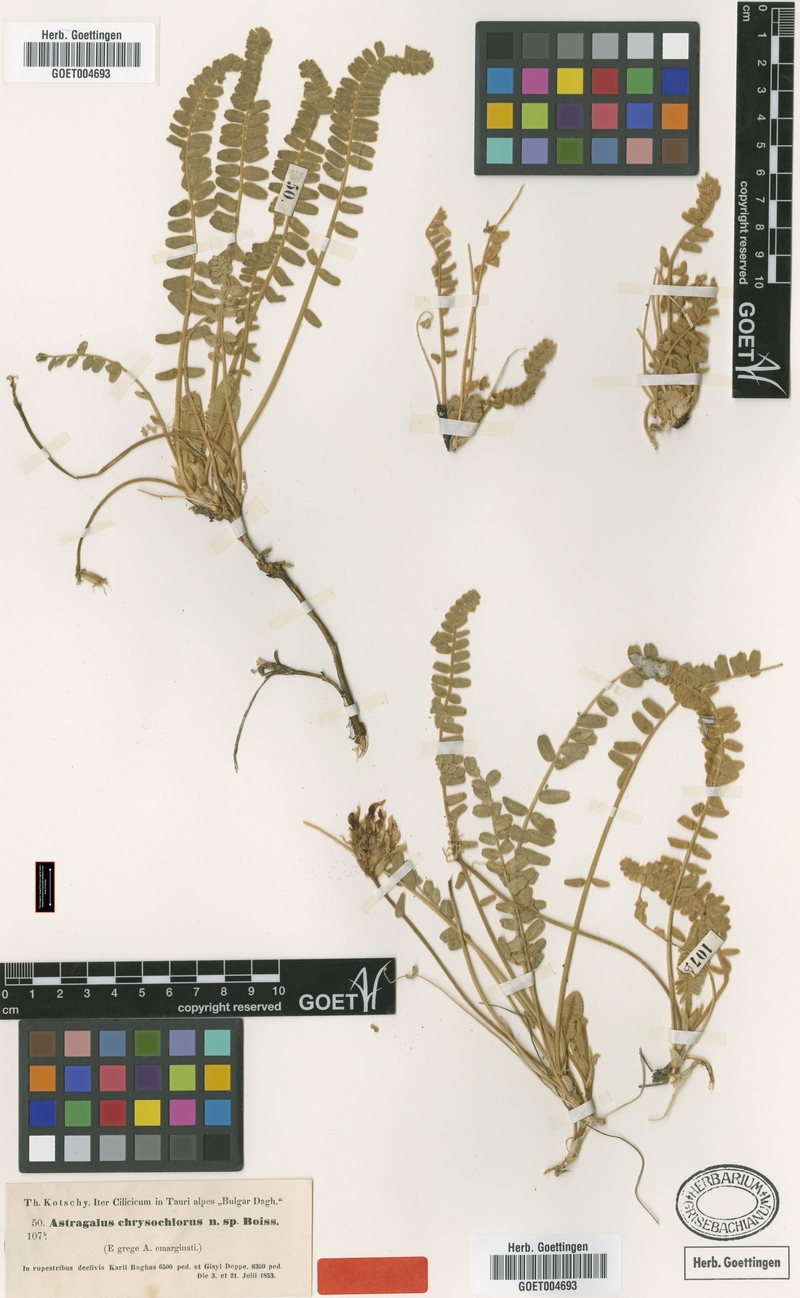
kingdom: Plantae
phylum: Tracheophyta
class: Magnoliopsida
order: Fabales
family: Fabaceae
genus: Astragalus
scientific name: Astragalus chrysochlorus
